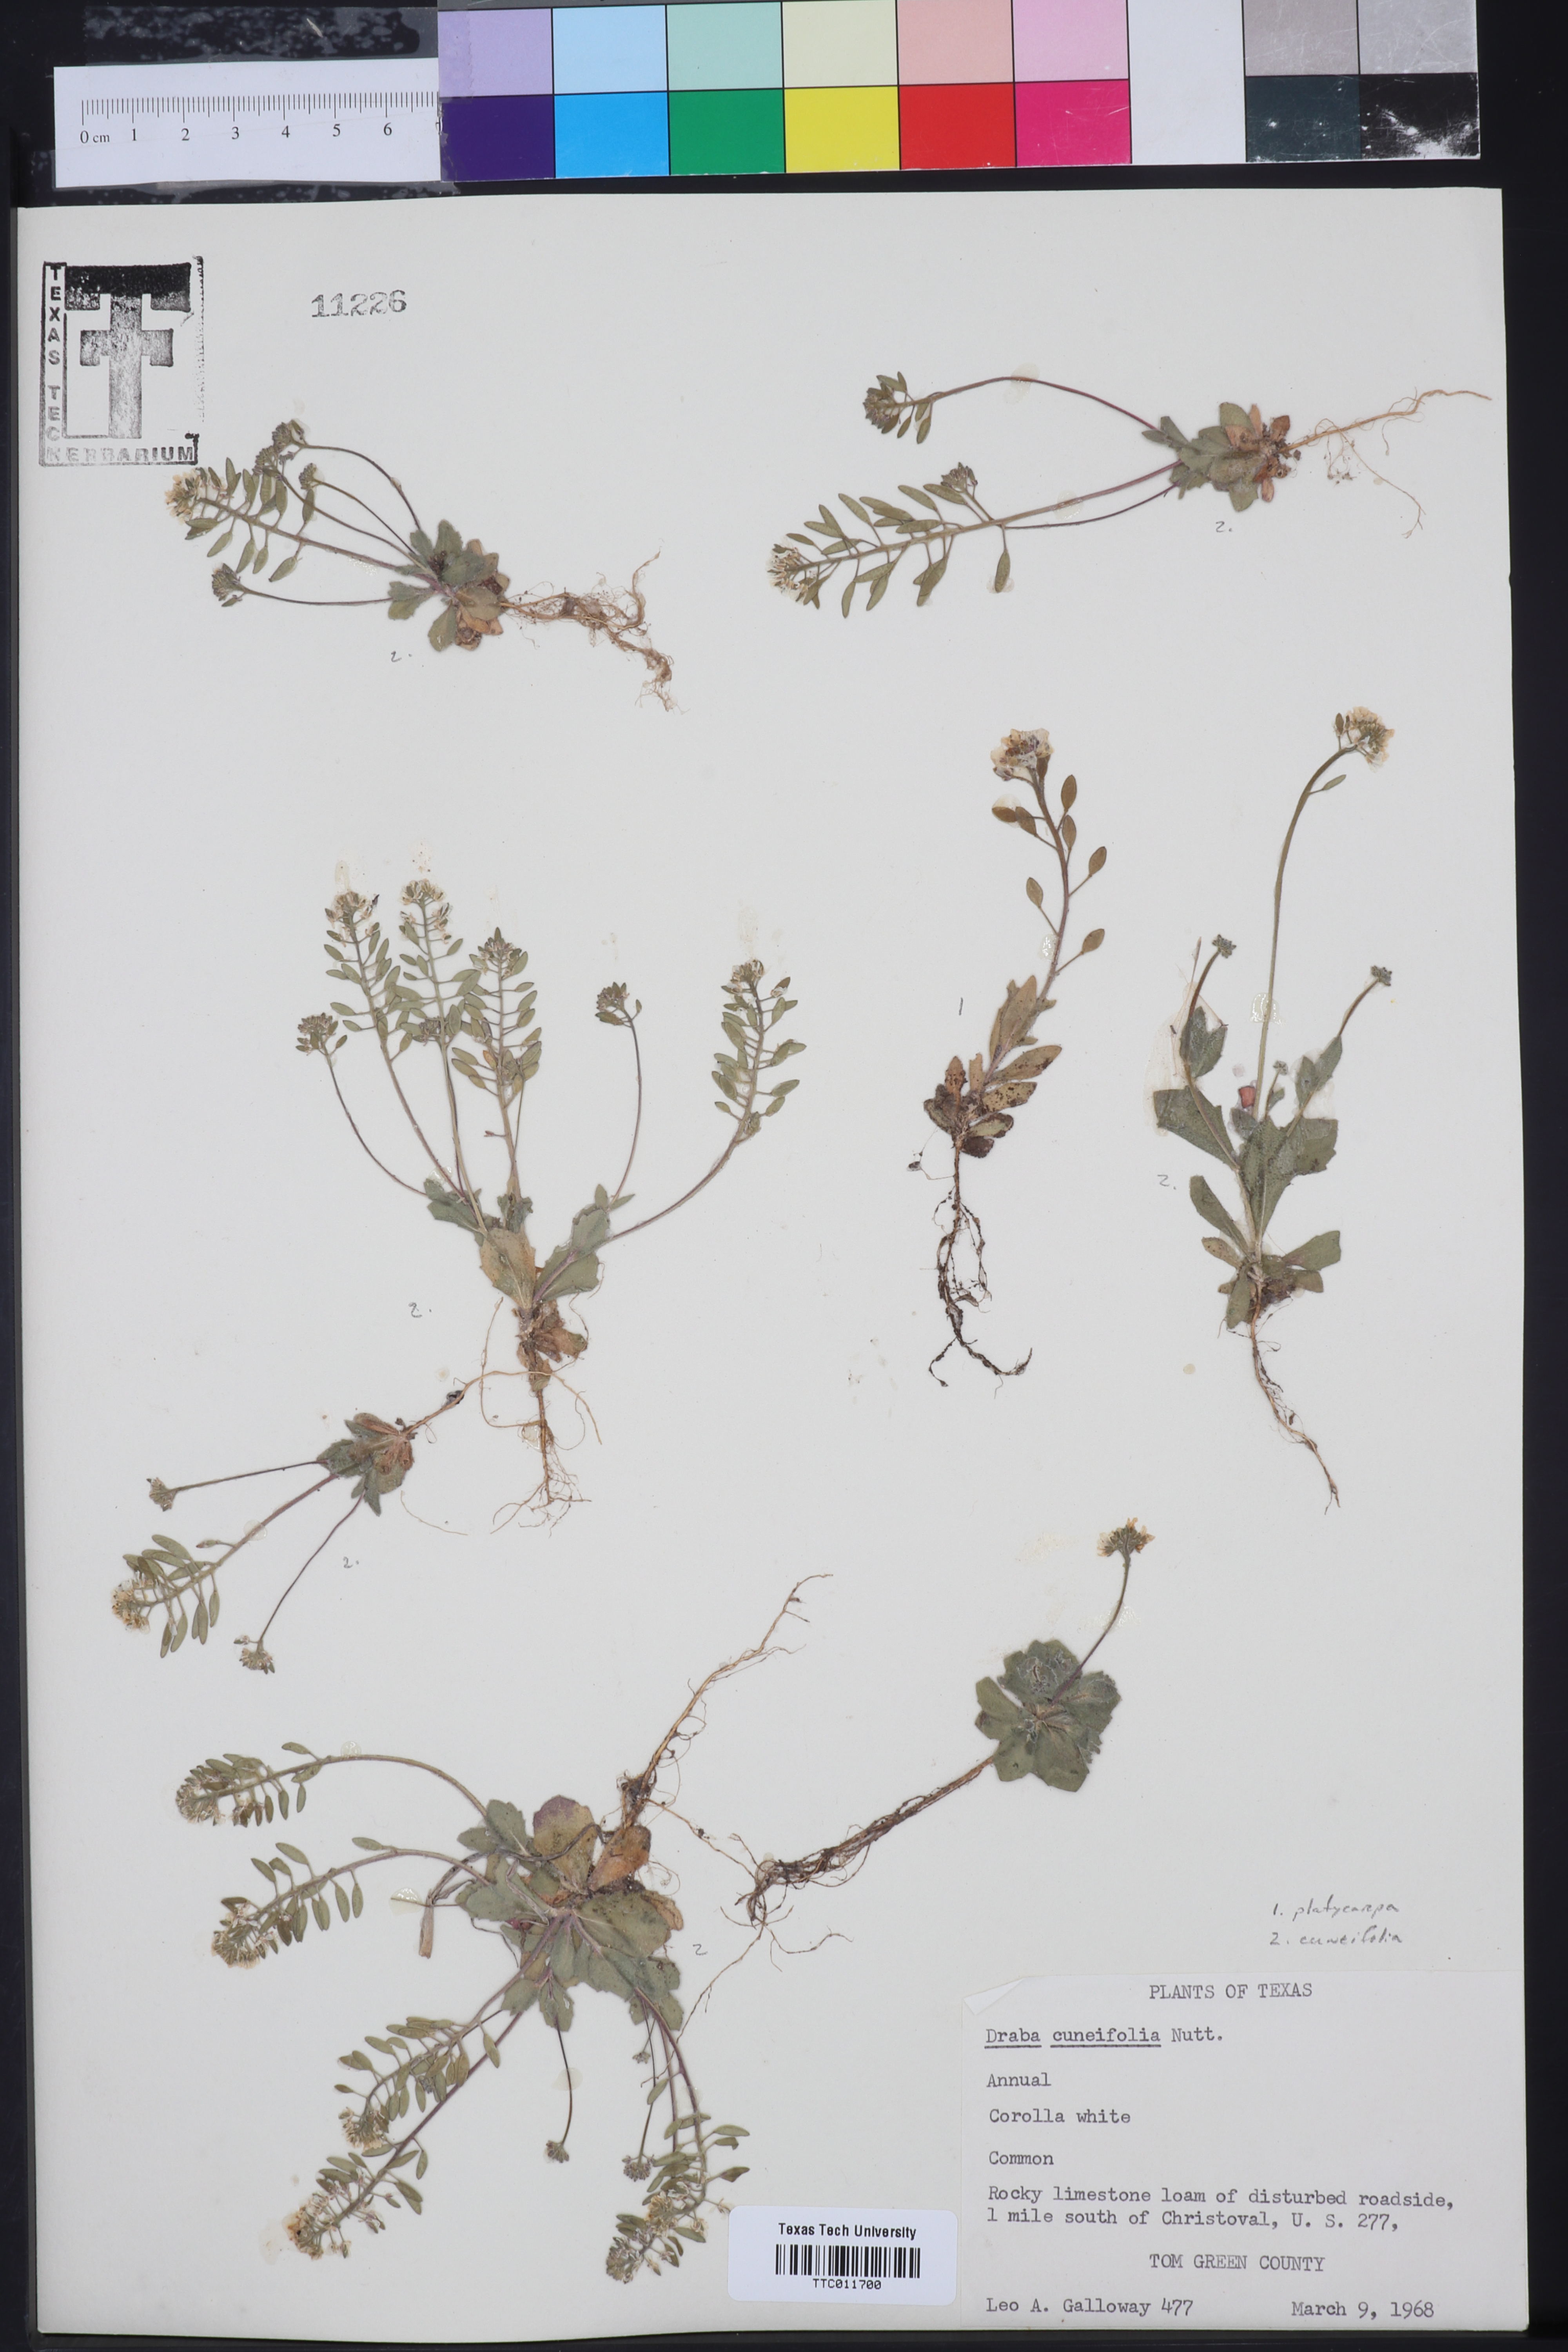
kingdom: Plantae
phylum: Tracheophyta
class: Magnoliopsida
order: Brassicales
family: Brassicaceae
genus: Tomostima
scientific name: Tomostima platycarpa
